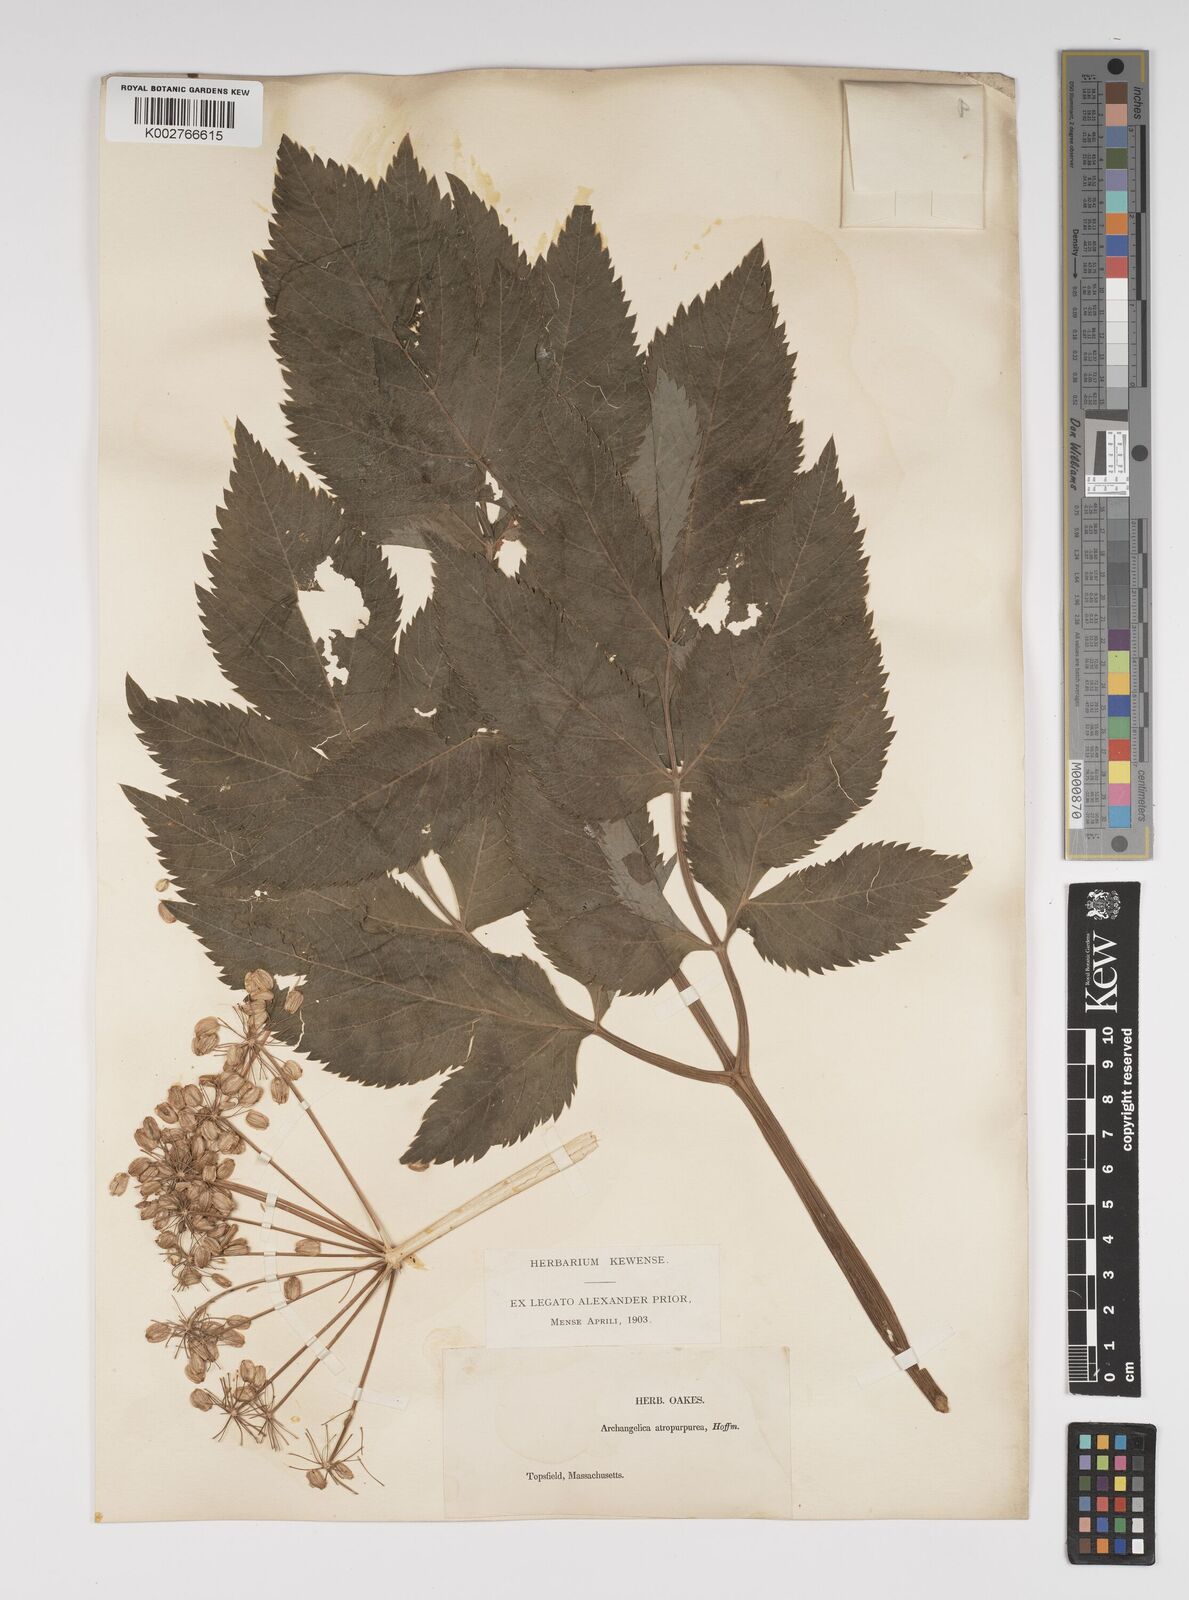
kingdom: Plantae
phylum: Tracheophyta
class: Magnoliopsida
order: Apiales
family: Apiaceae
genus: Angelica
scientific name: Angelica atropurpurea
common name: Great angelica
